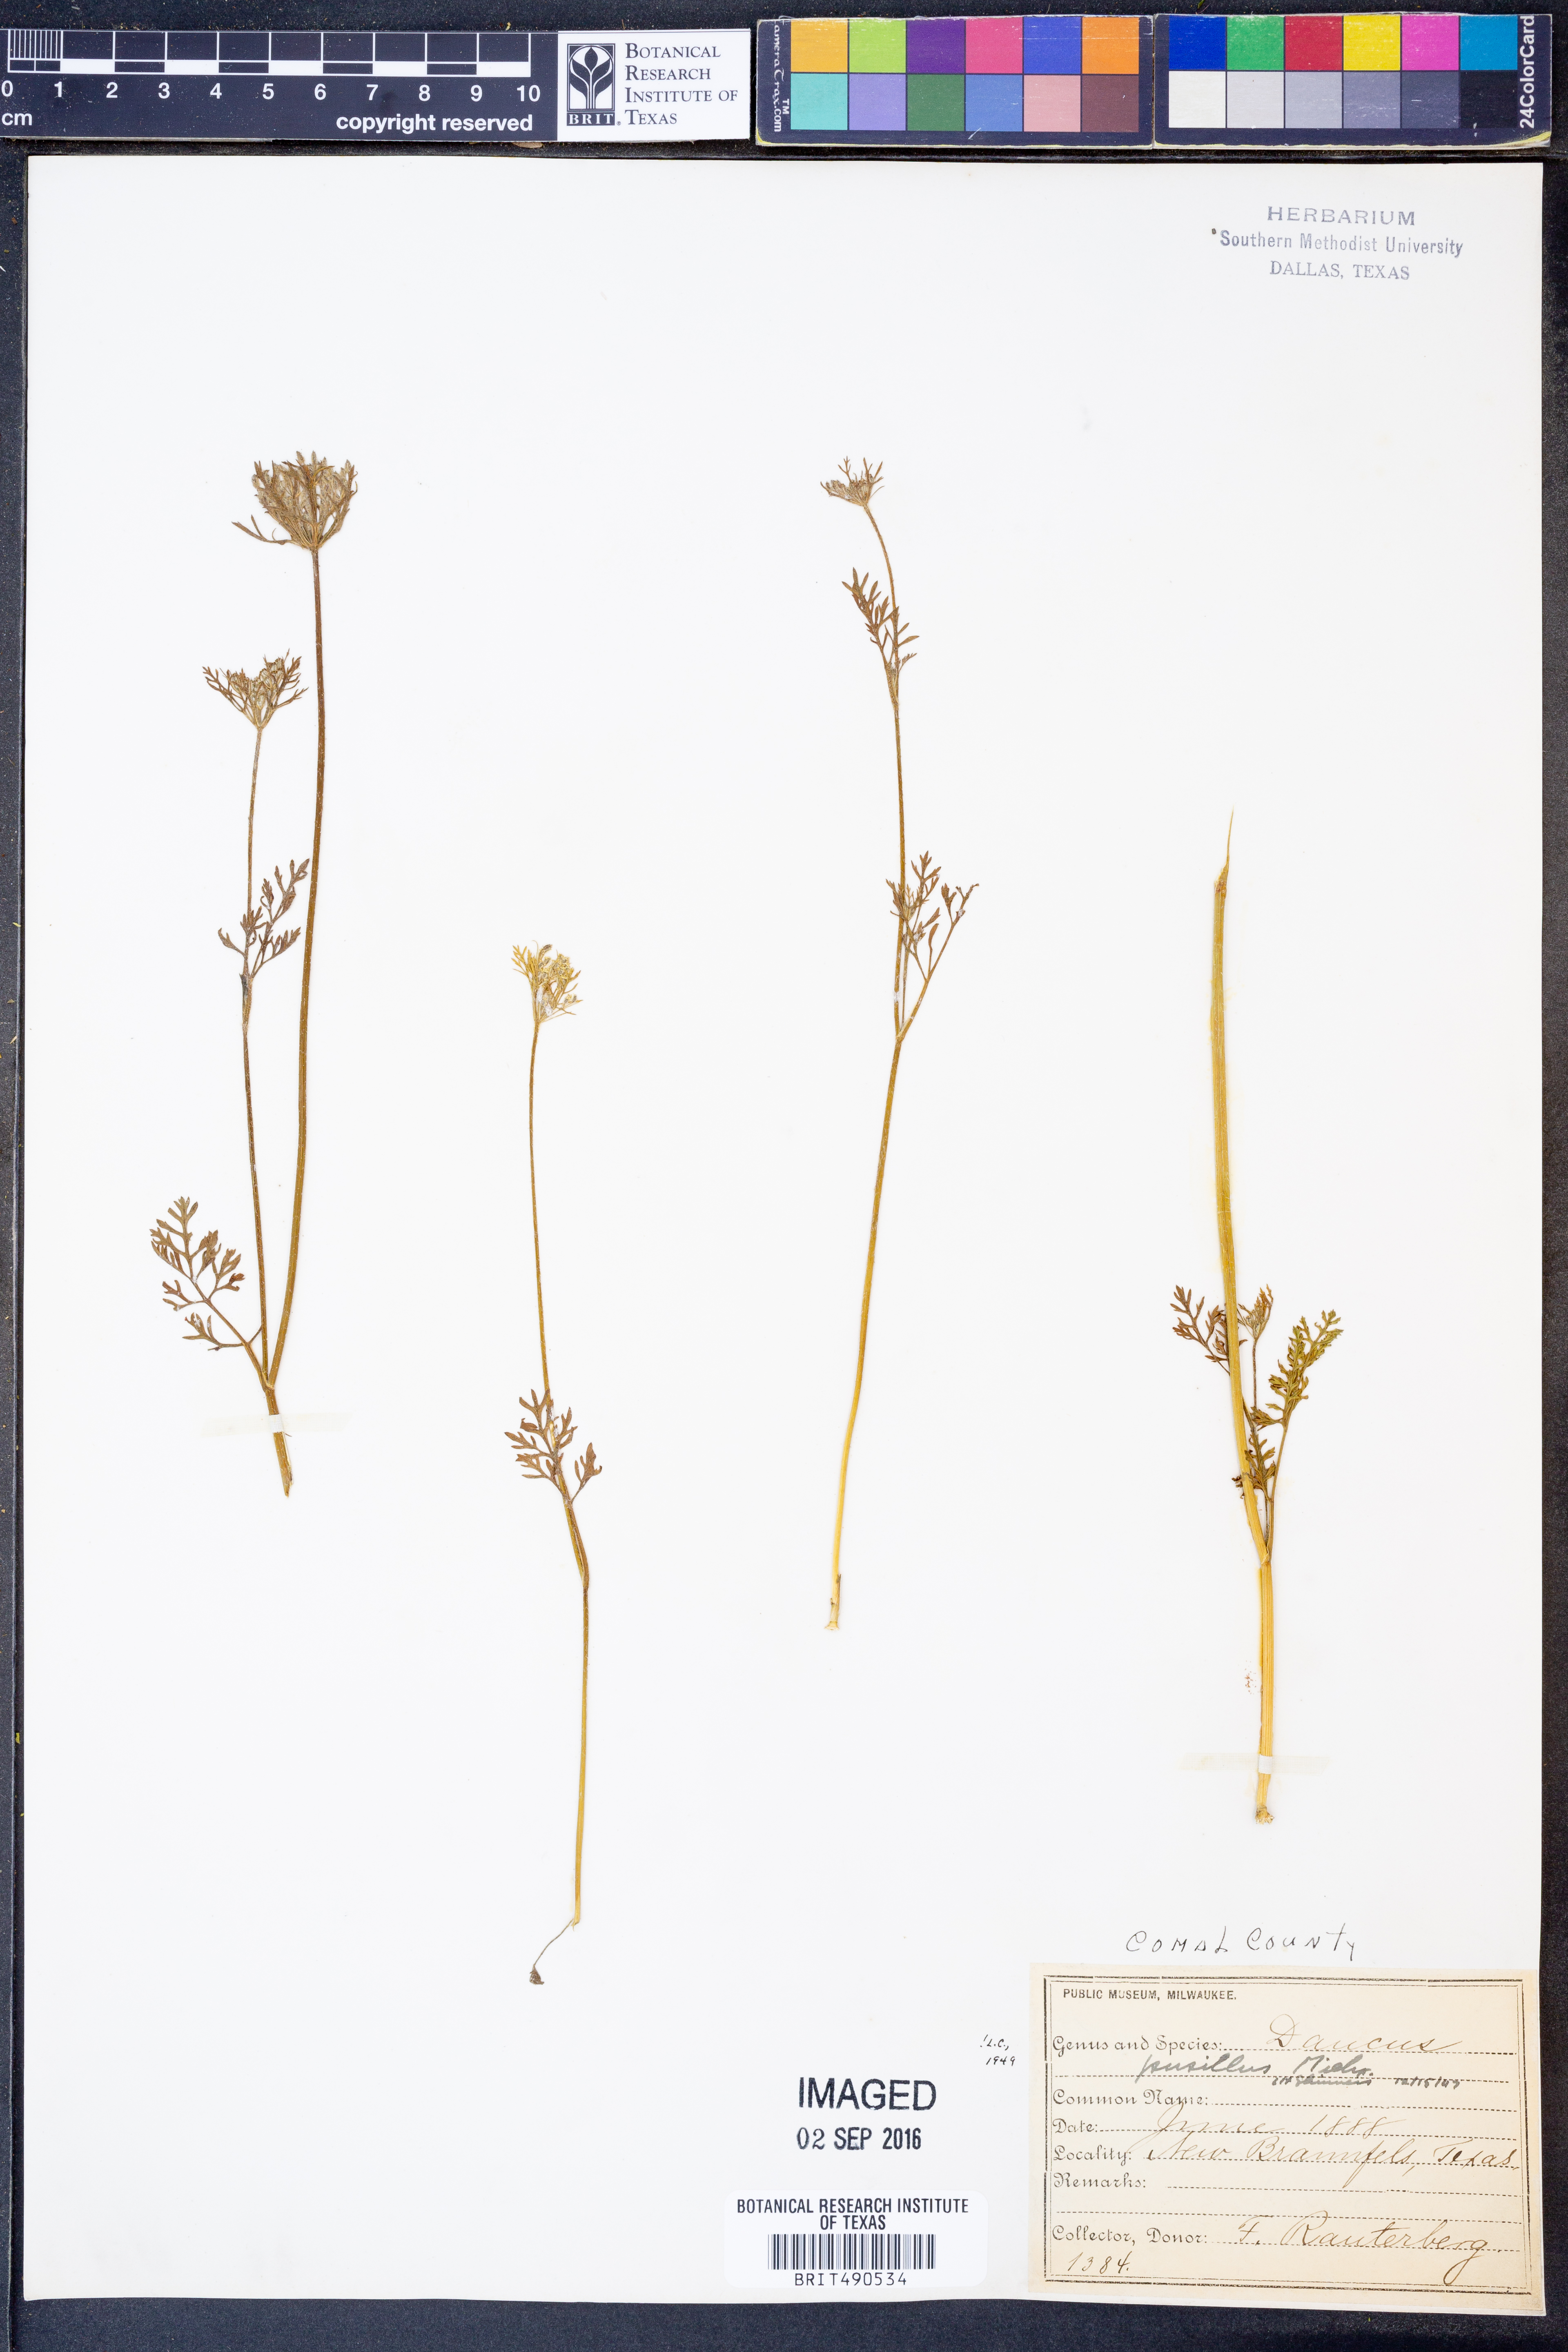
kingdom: Plantae
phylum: Tracheophyta
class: Magnoliopsida
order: Apiales
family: Apiaceae
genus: Daucus
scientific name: Daucus pusillus
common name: Southwest wild carrot
